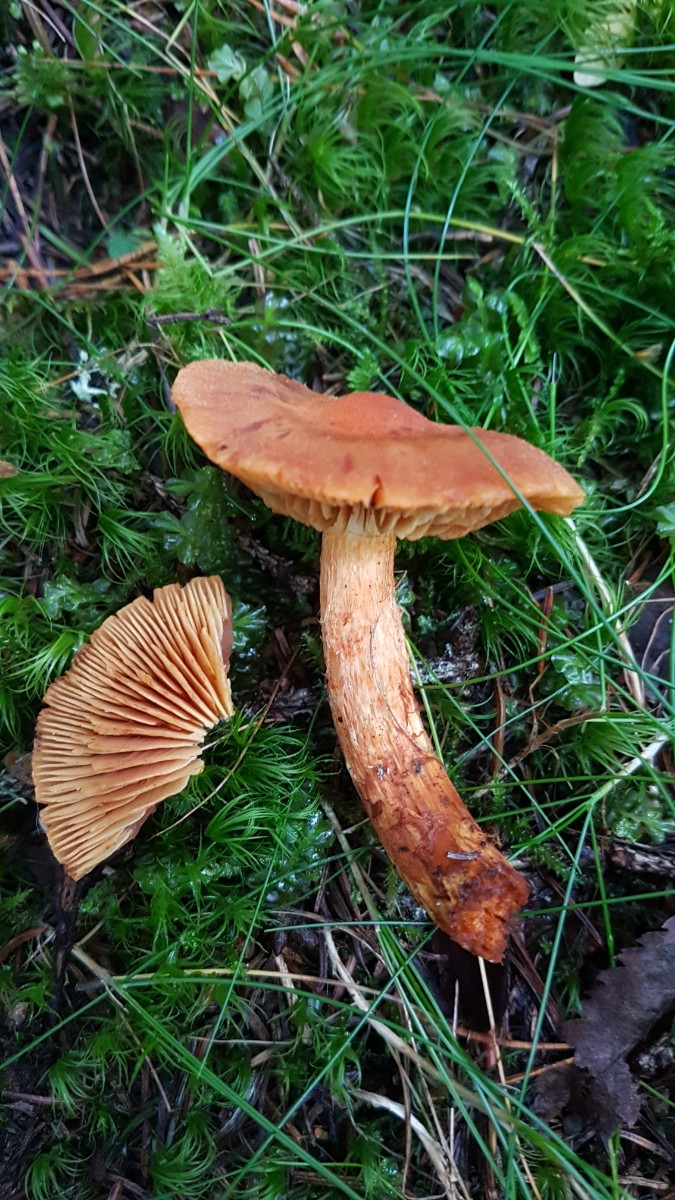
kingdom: Fungi
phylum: Basidiomycota
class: Agaricomycetes
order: Agaricales
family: Cortinariaceae
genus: Aureonarius
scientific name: Aureonarius limonius
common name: orangegul slørhat
